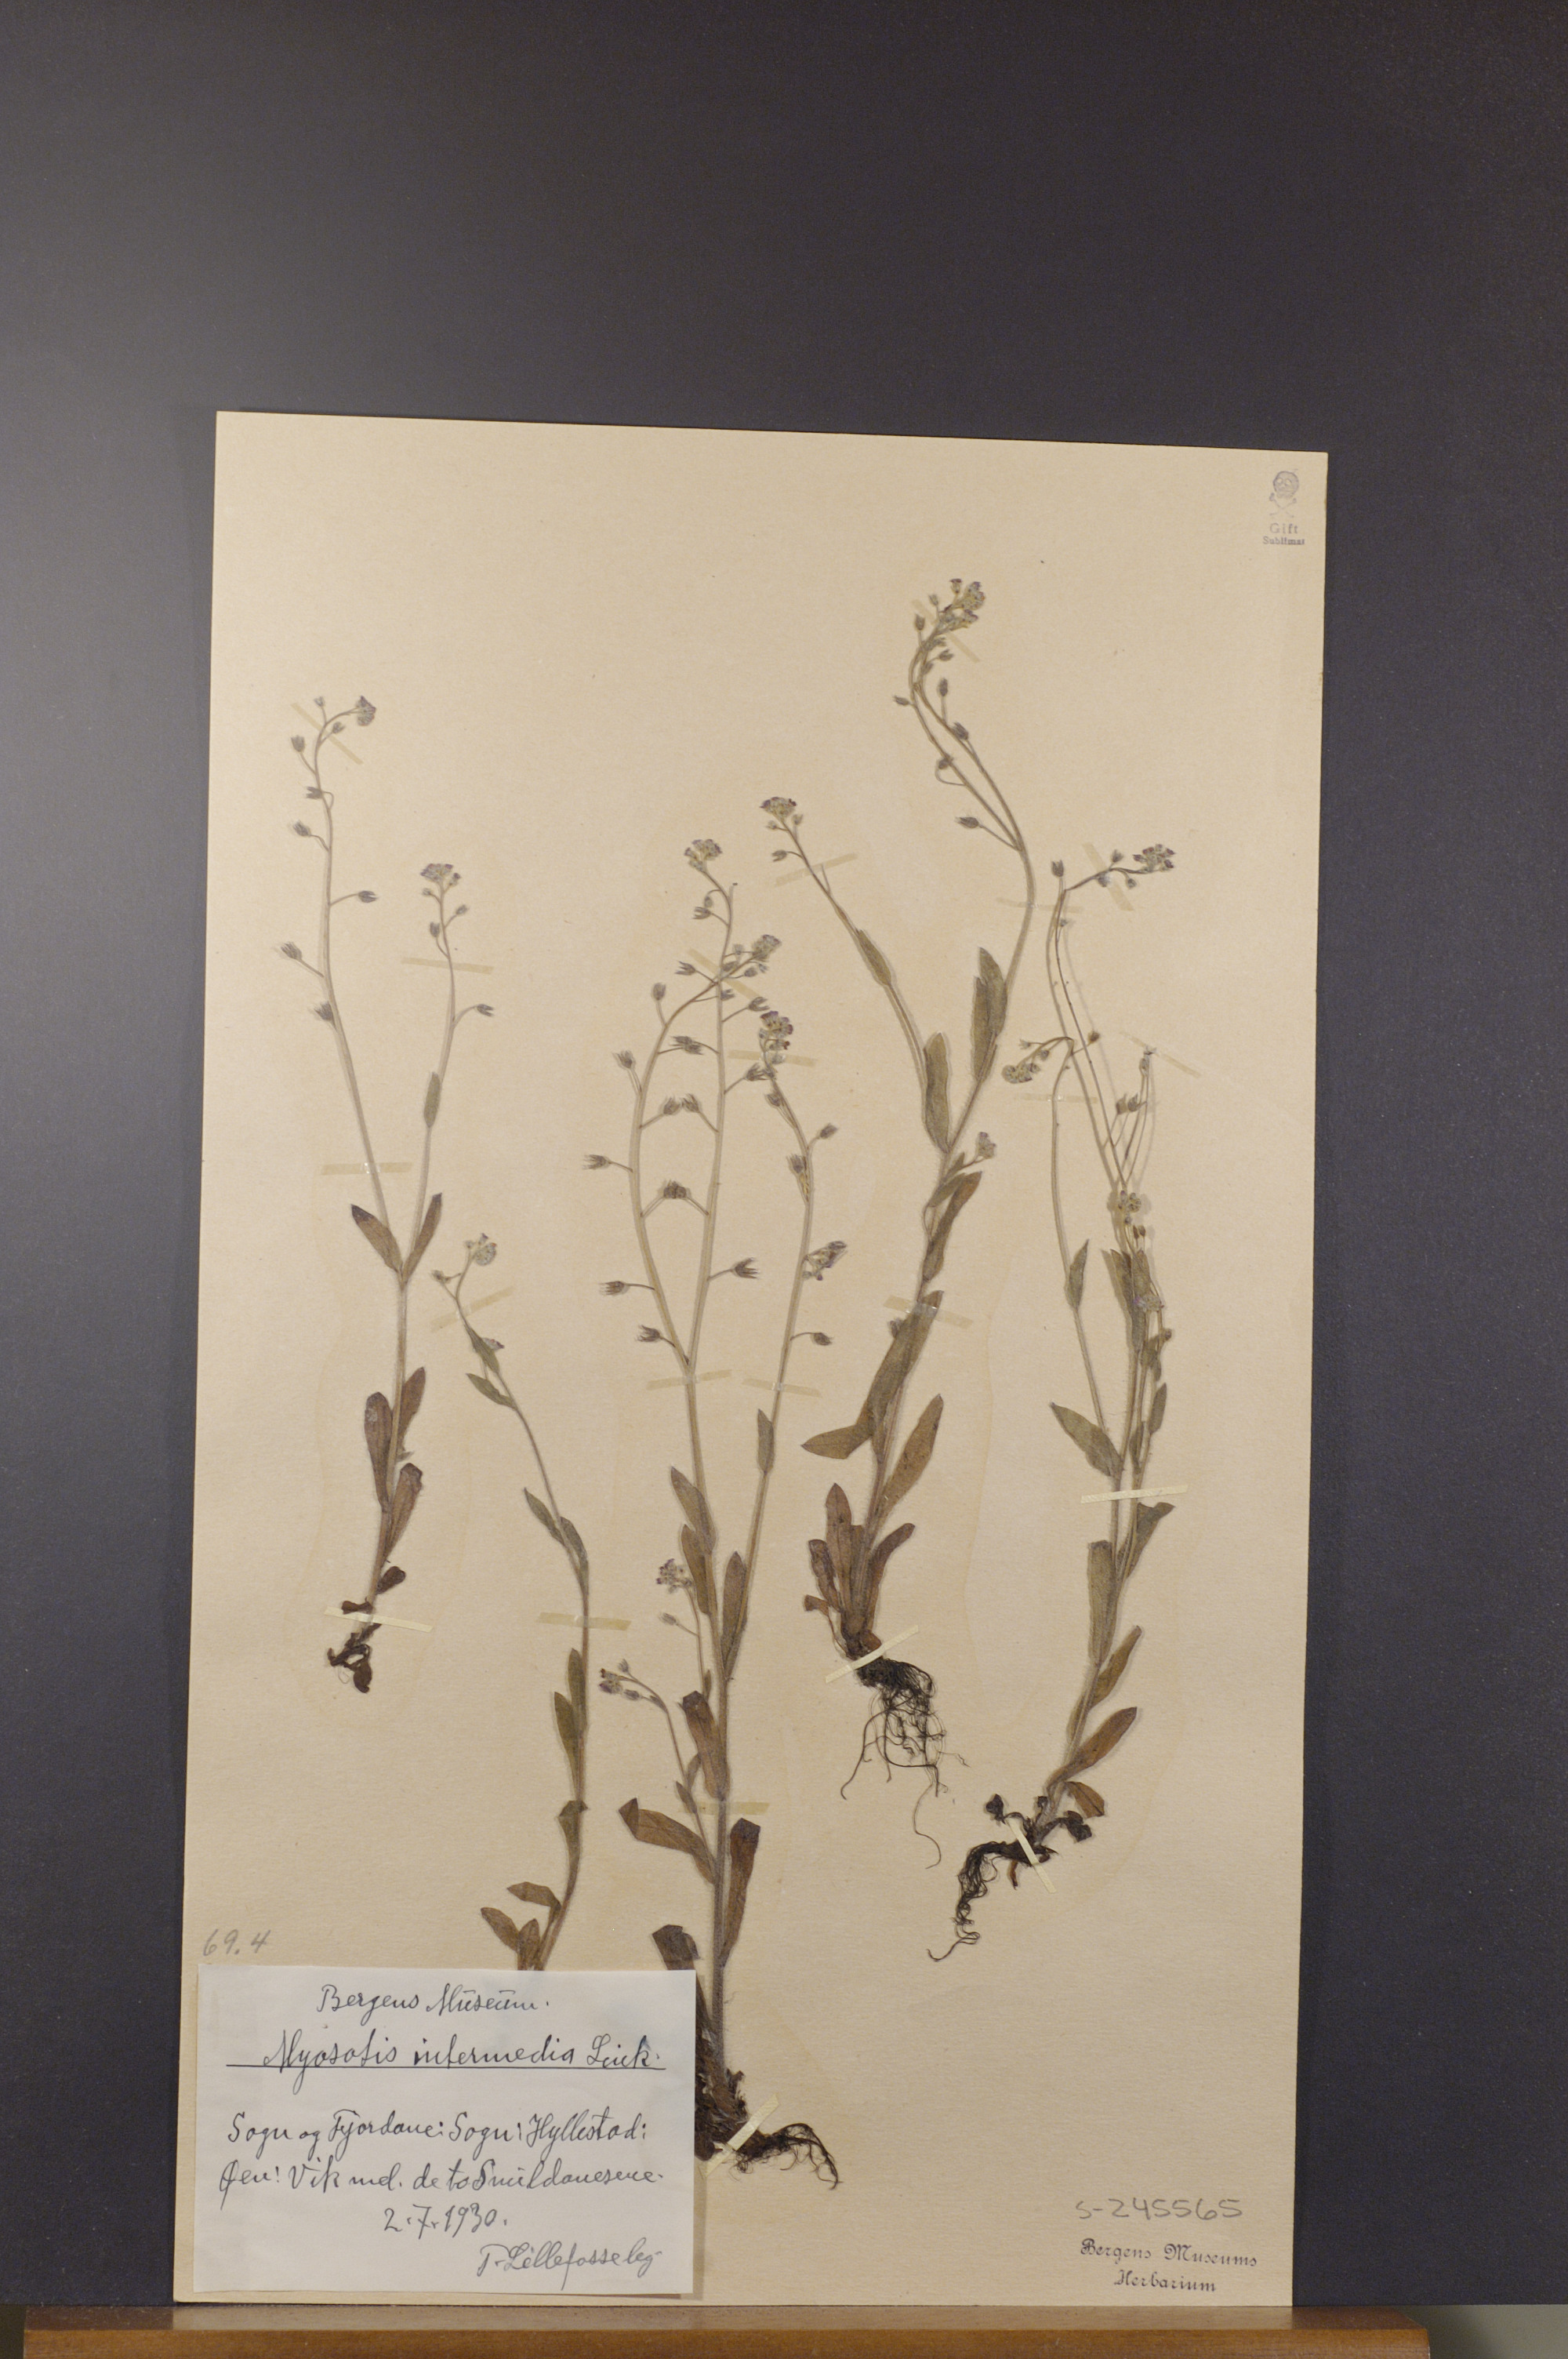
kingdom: Plantae
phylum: Tracheophyta
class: Magnoliopsida
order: Boraginales
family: Boraginaceae
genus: Myosotis
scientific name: Myosotis arvensis
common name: Field forget-me-not
